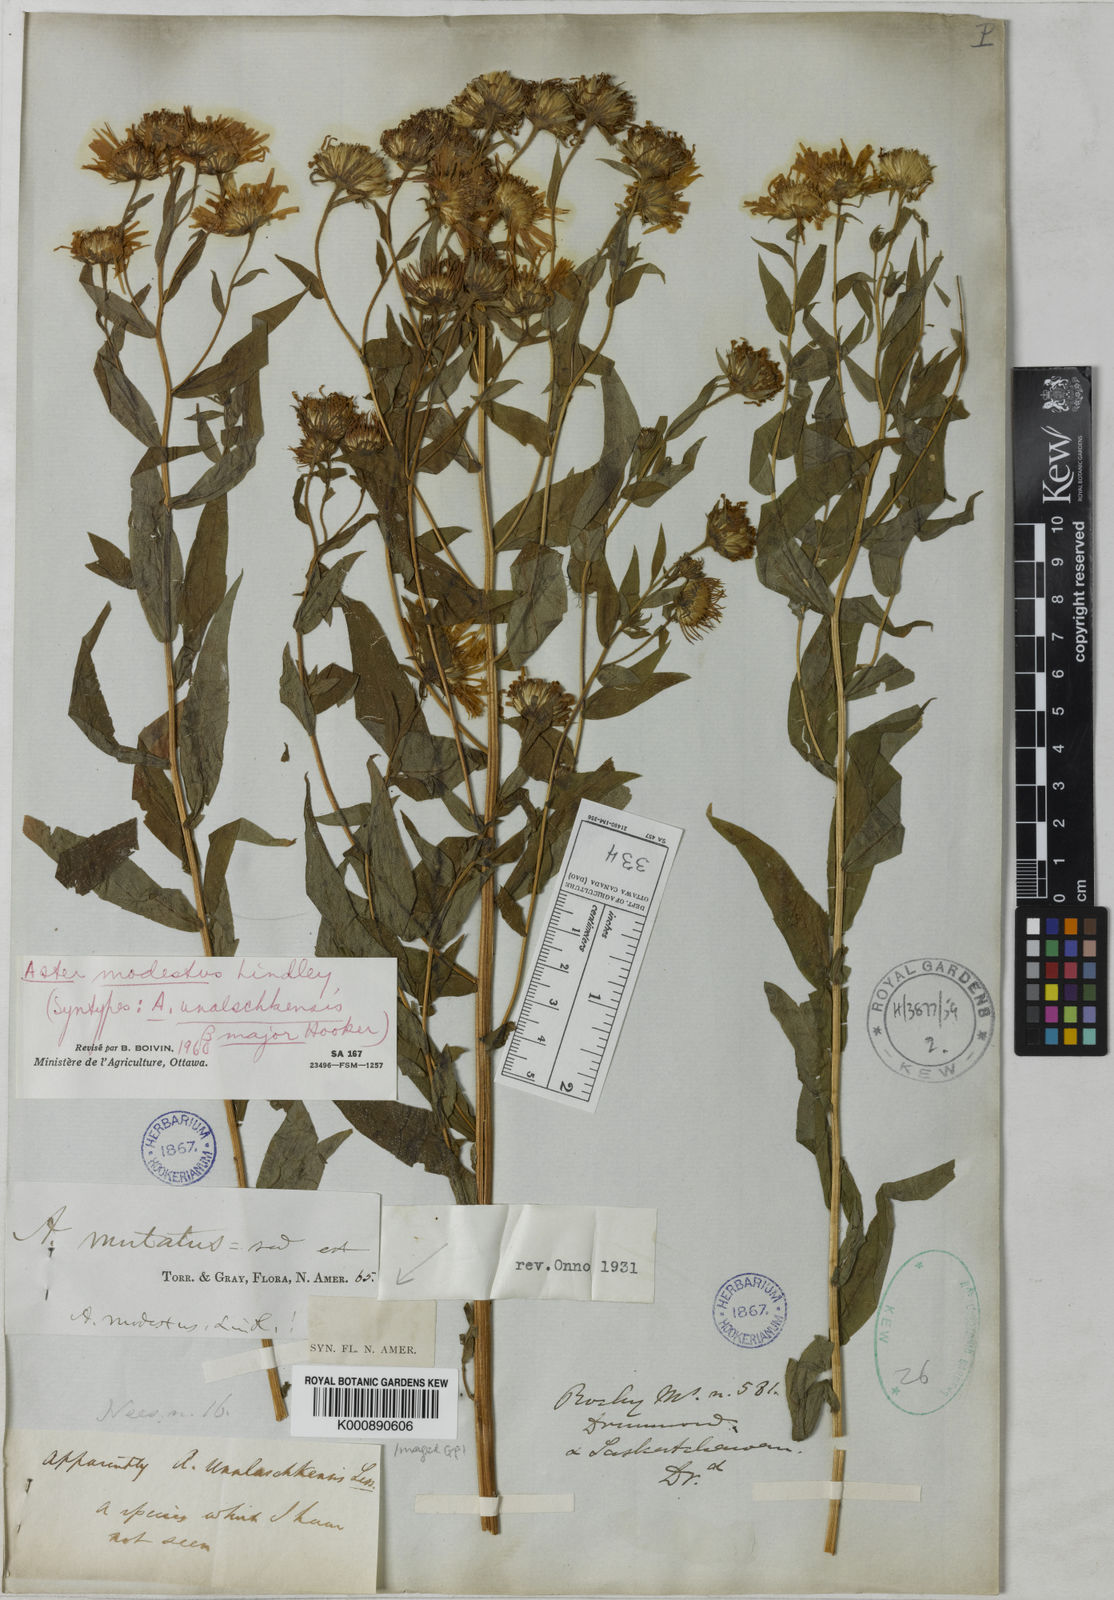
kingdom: Plantae
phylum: Tracheophyta
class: Magnoliopsida
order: Asterales
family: Asteraceae
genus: Canadanthus
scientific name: Canadanthus modestus
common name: Great northern aster
